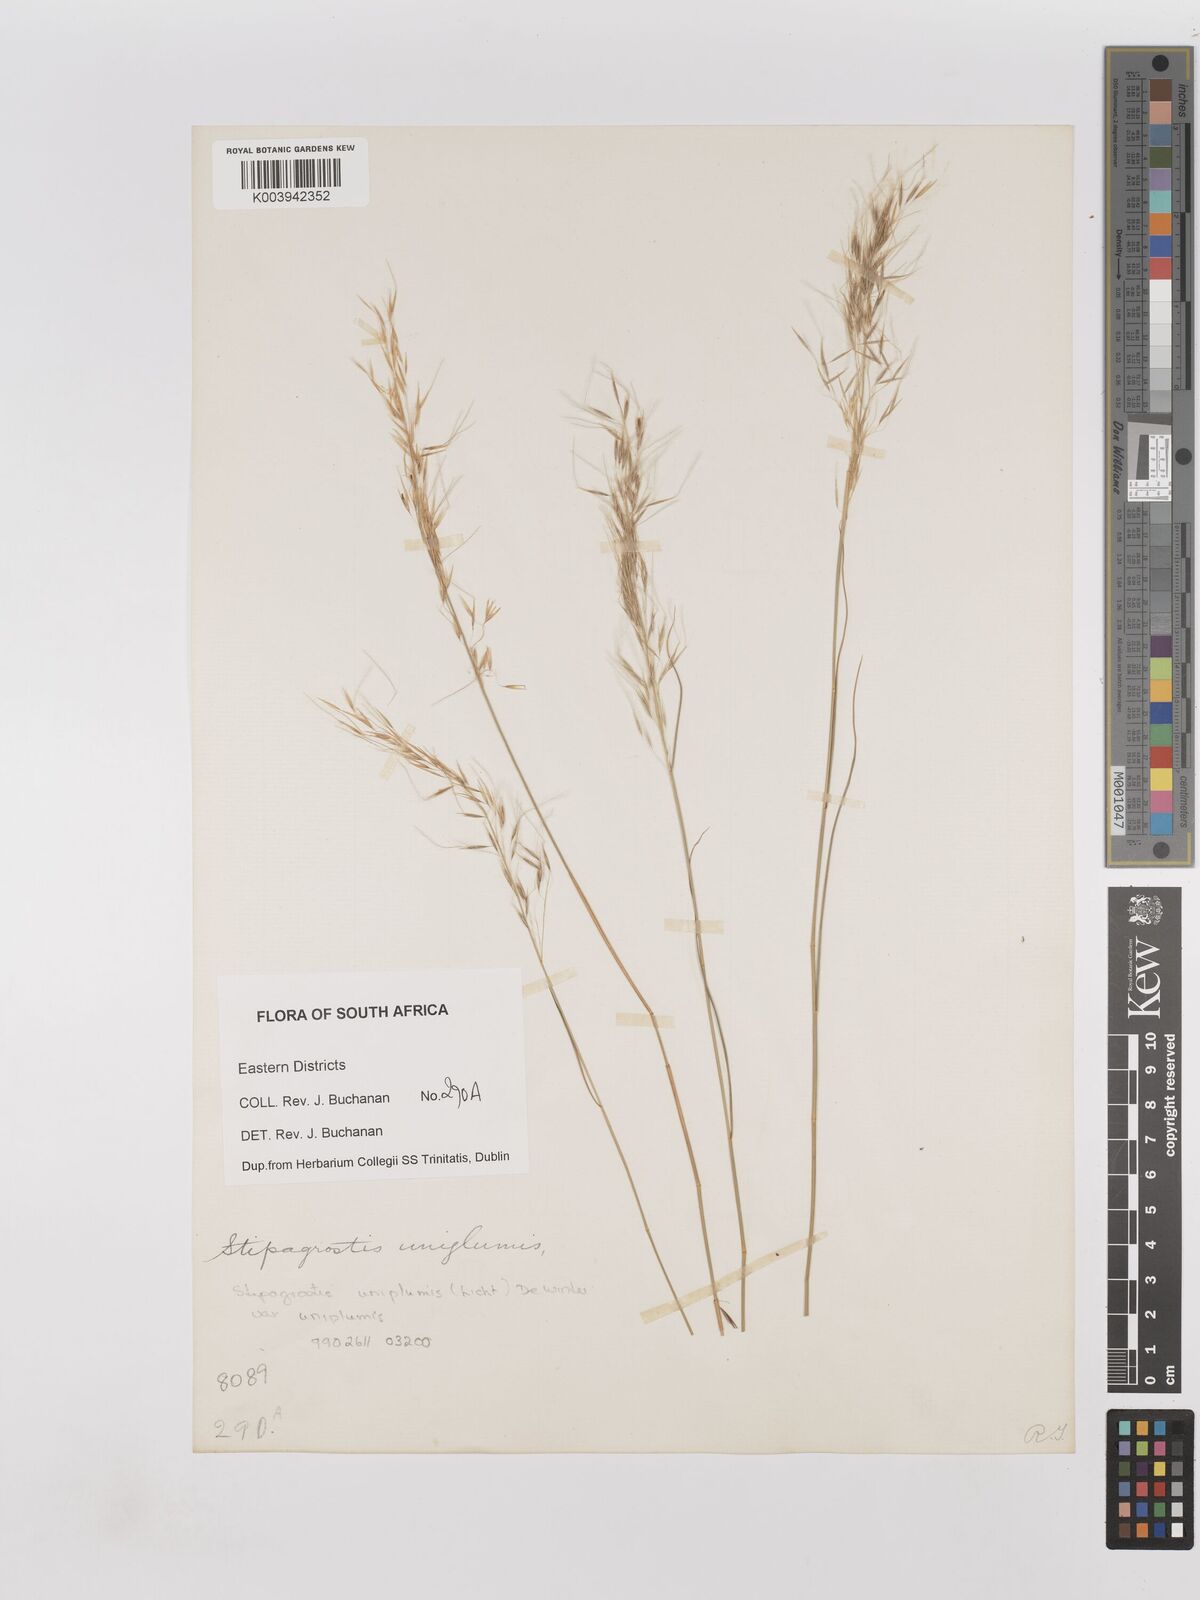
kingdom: Plantae
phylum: Tracheophyta
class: Liliopsida
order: Poales
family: Poaceae
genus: Stipagrostis
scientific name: Stipagrostis uniplumis
